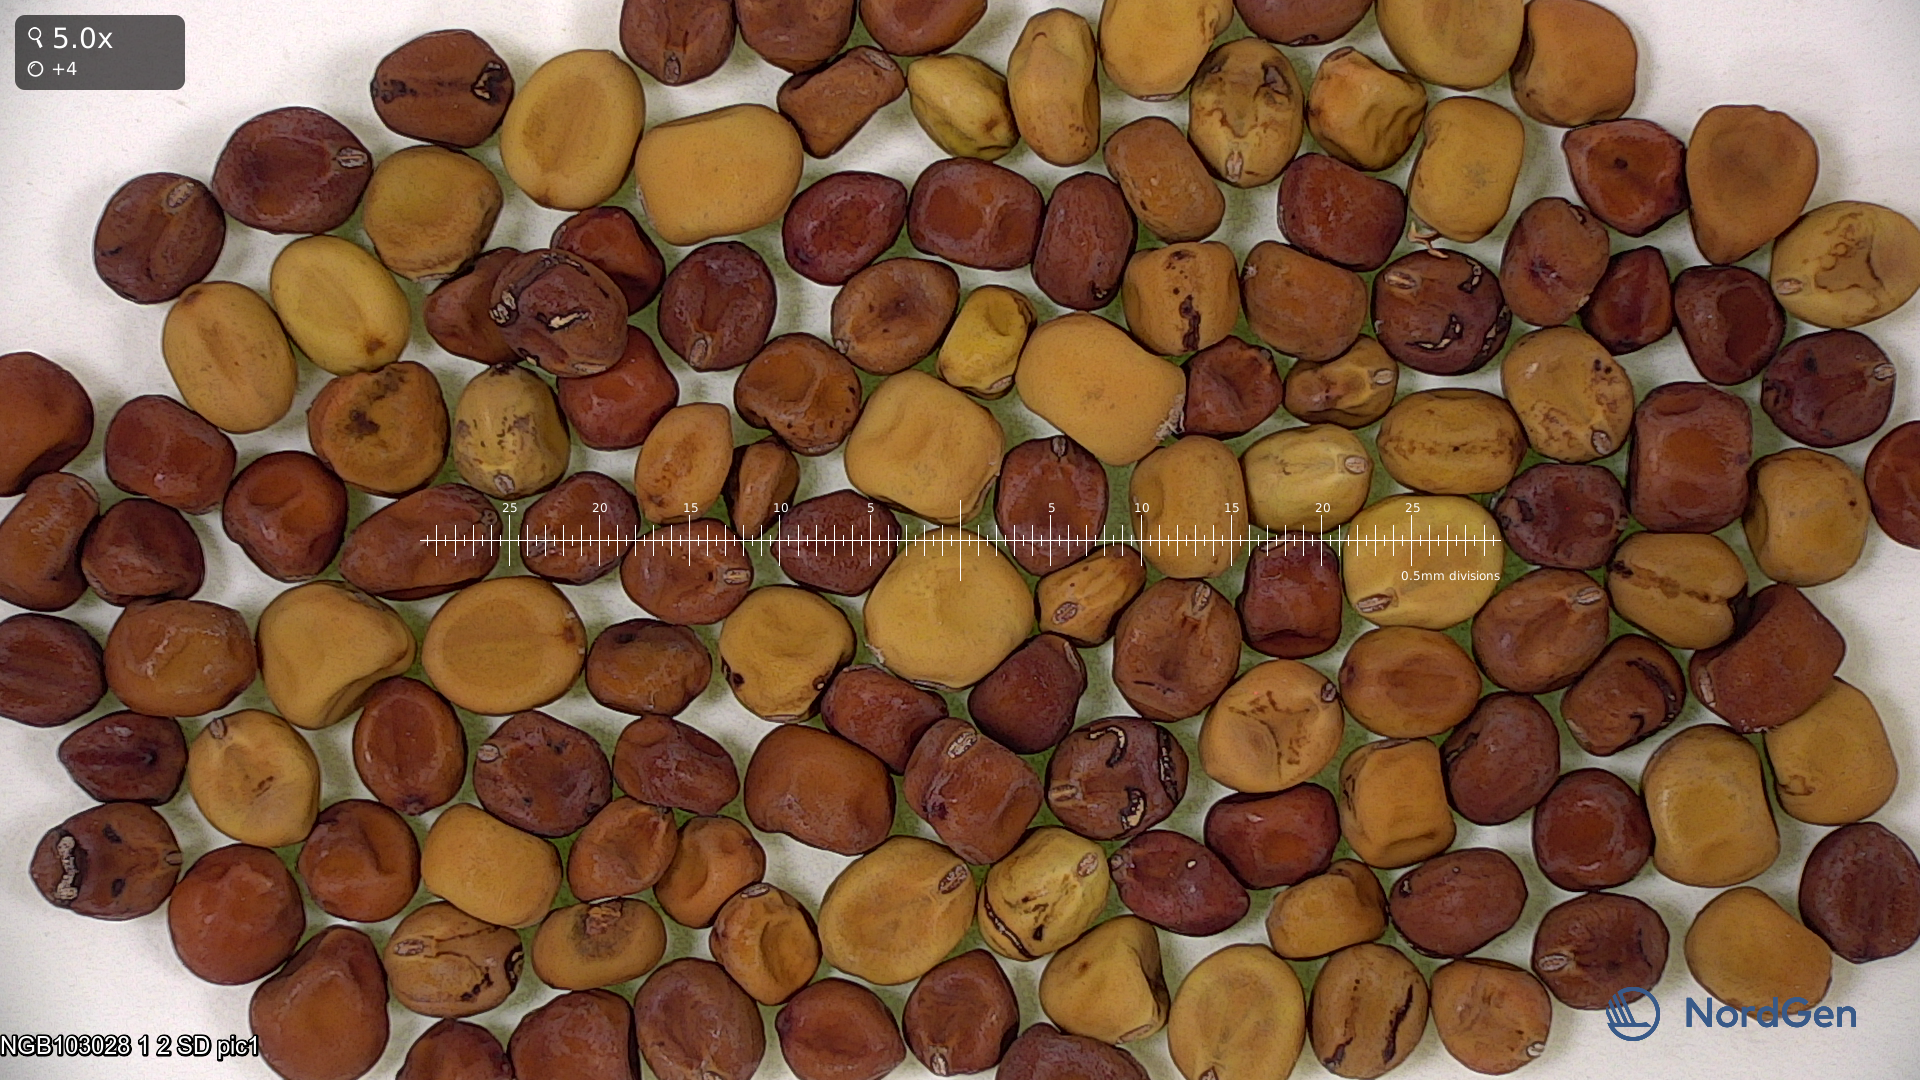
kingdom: Plantae
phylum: Tracheophyta
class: Magnoliopsida
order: Fabales
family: Fabaceae
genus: Lathyrus
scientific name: Lathyrus oleraceus
